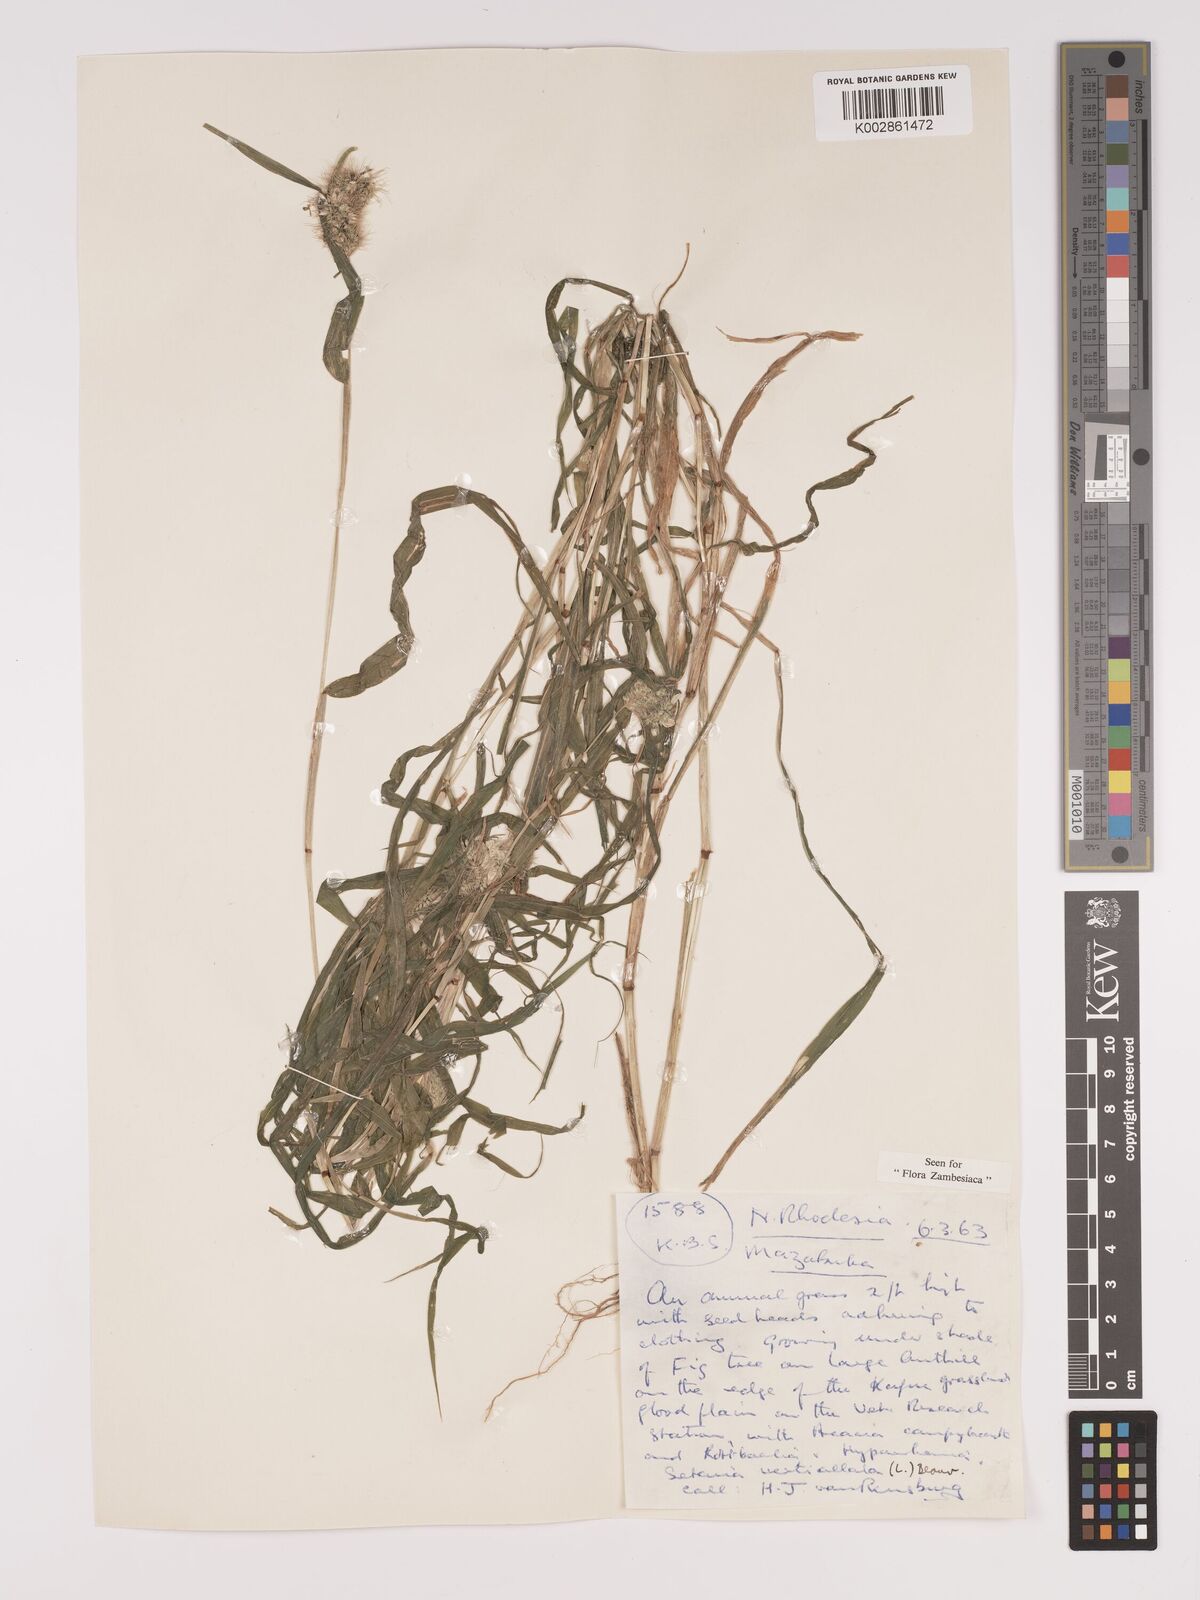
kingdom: Plantae
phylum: Tracheophyta
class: Liliopsida
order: Poales
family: Poaceae
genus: Setaria
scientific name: Setaria verticillata
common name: Hooked bristlegrass
